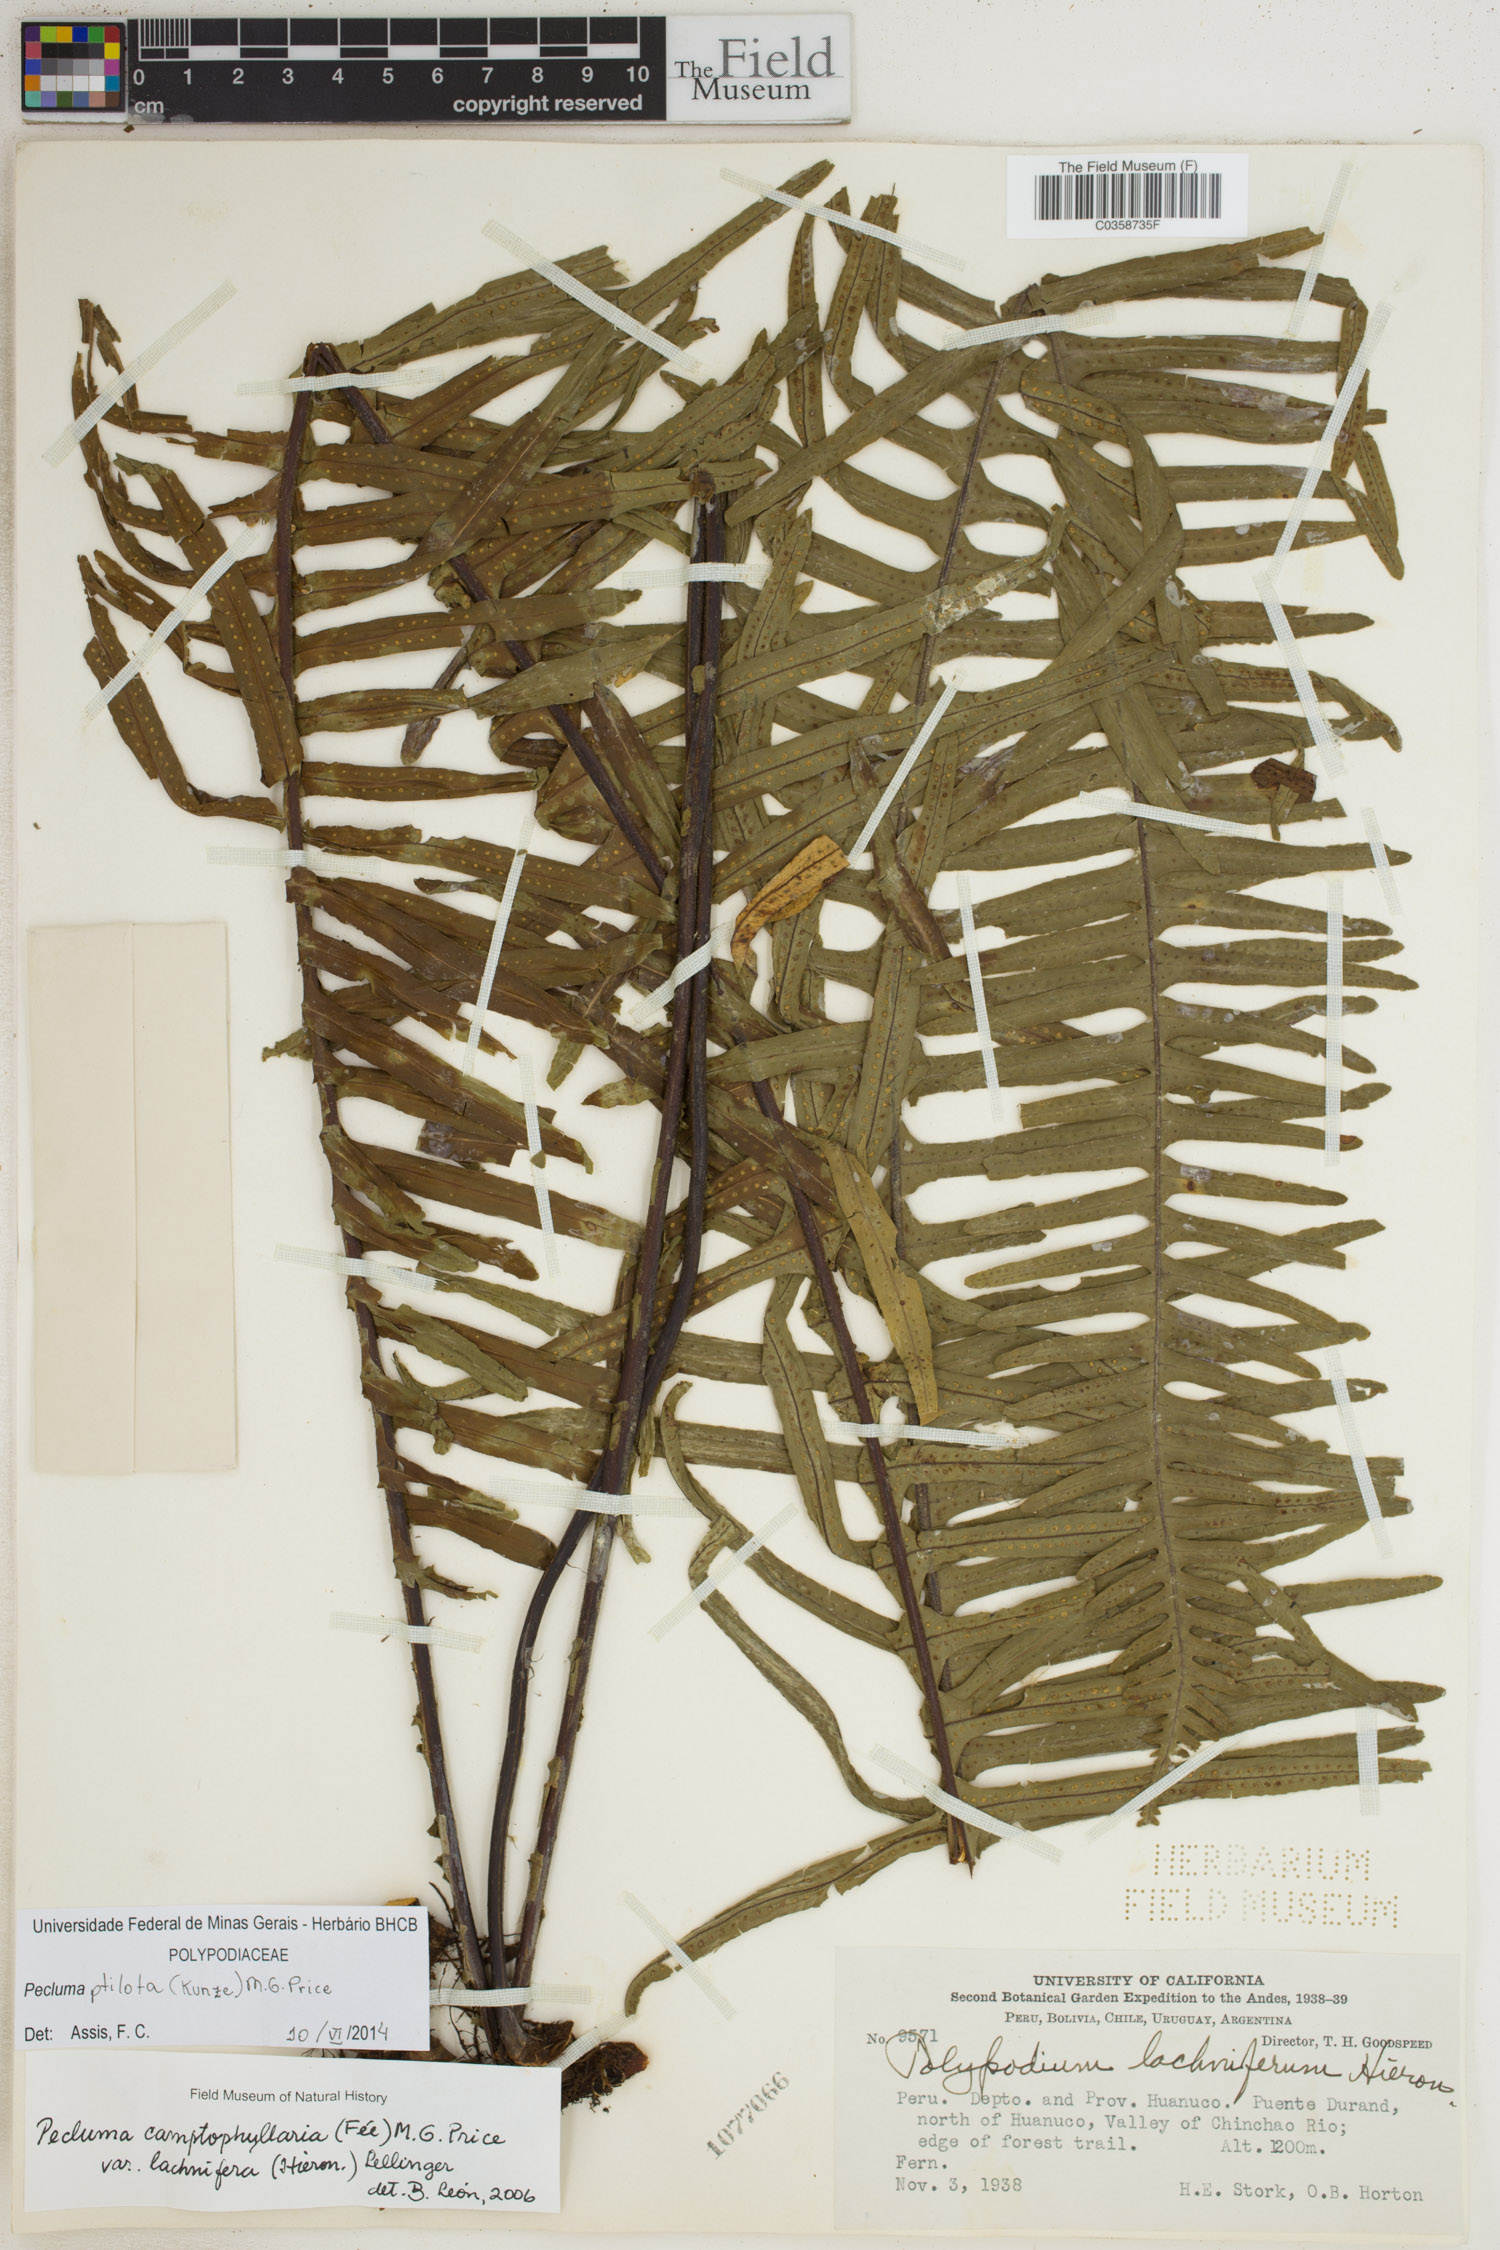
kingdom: Plantae
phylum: Tracheophyta
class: Polypodiopsida
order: Polypodiales
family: Polypodiaceae
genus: Pecluma
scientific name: Pecluma ptilotos
